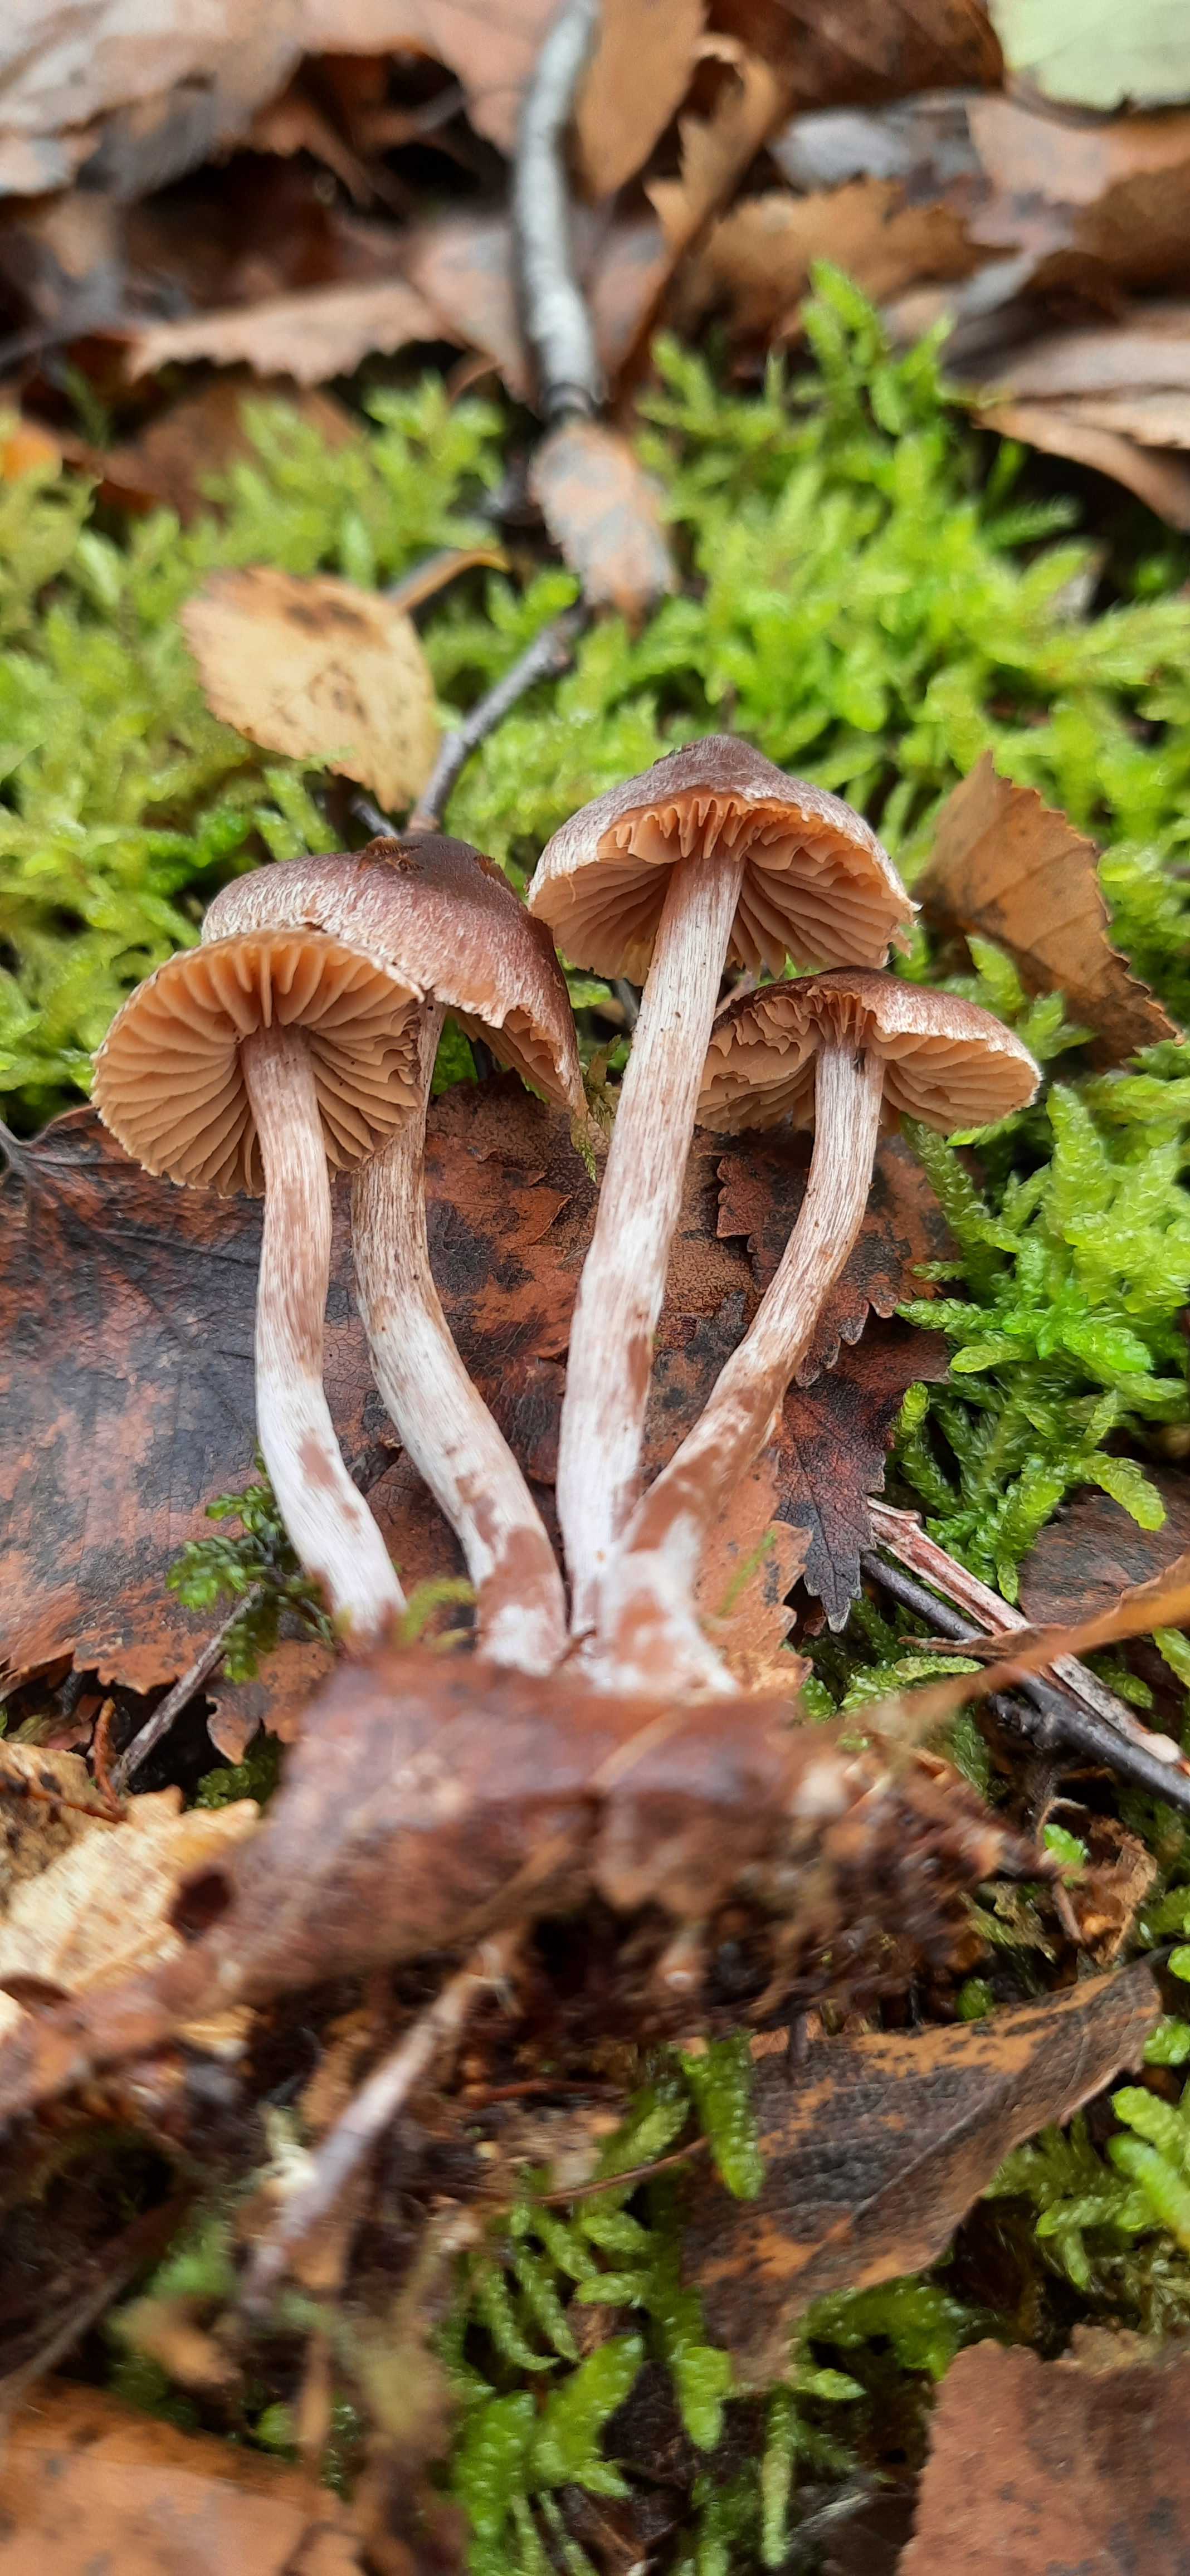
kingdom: Fungi
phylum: Basidiomycota
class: Agaricomycetes
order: Agaricales
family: Cortinariaceae
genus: Cortinarius
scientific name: Cortinarius hirtus
